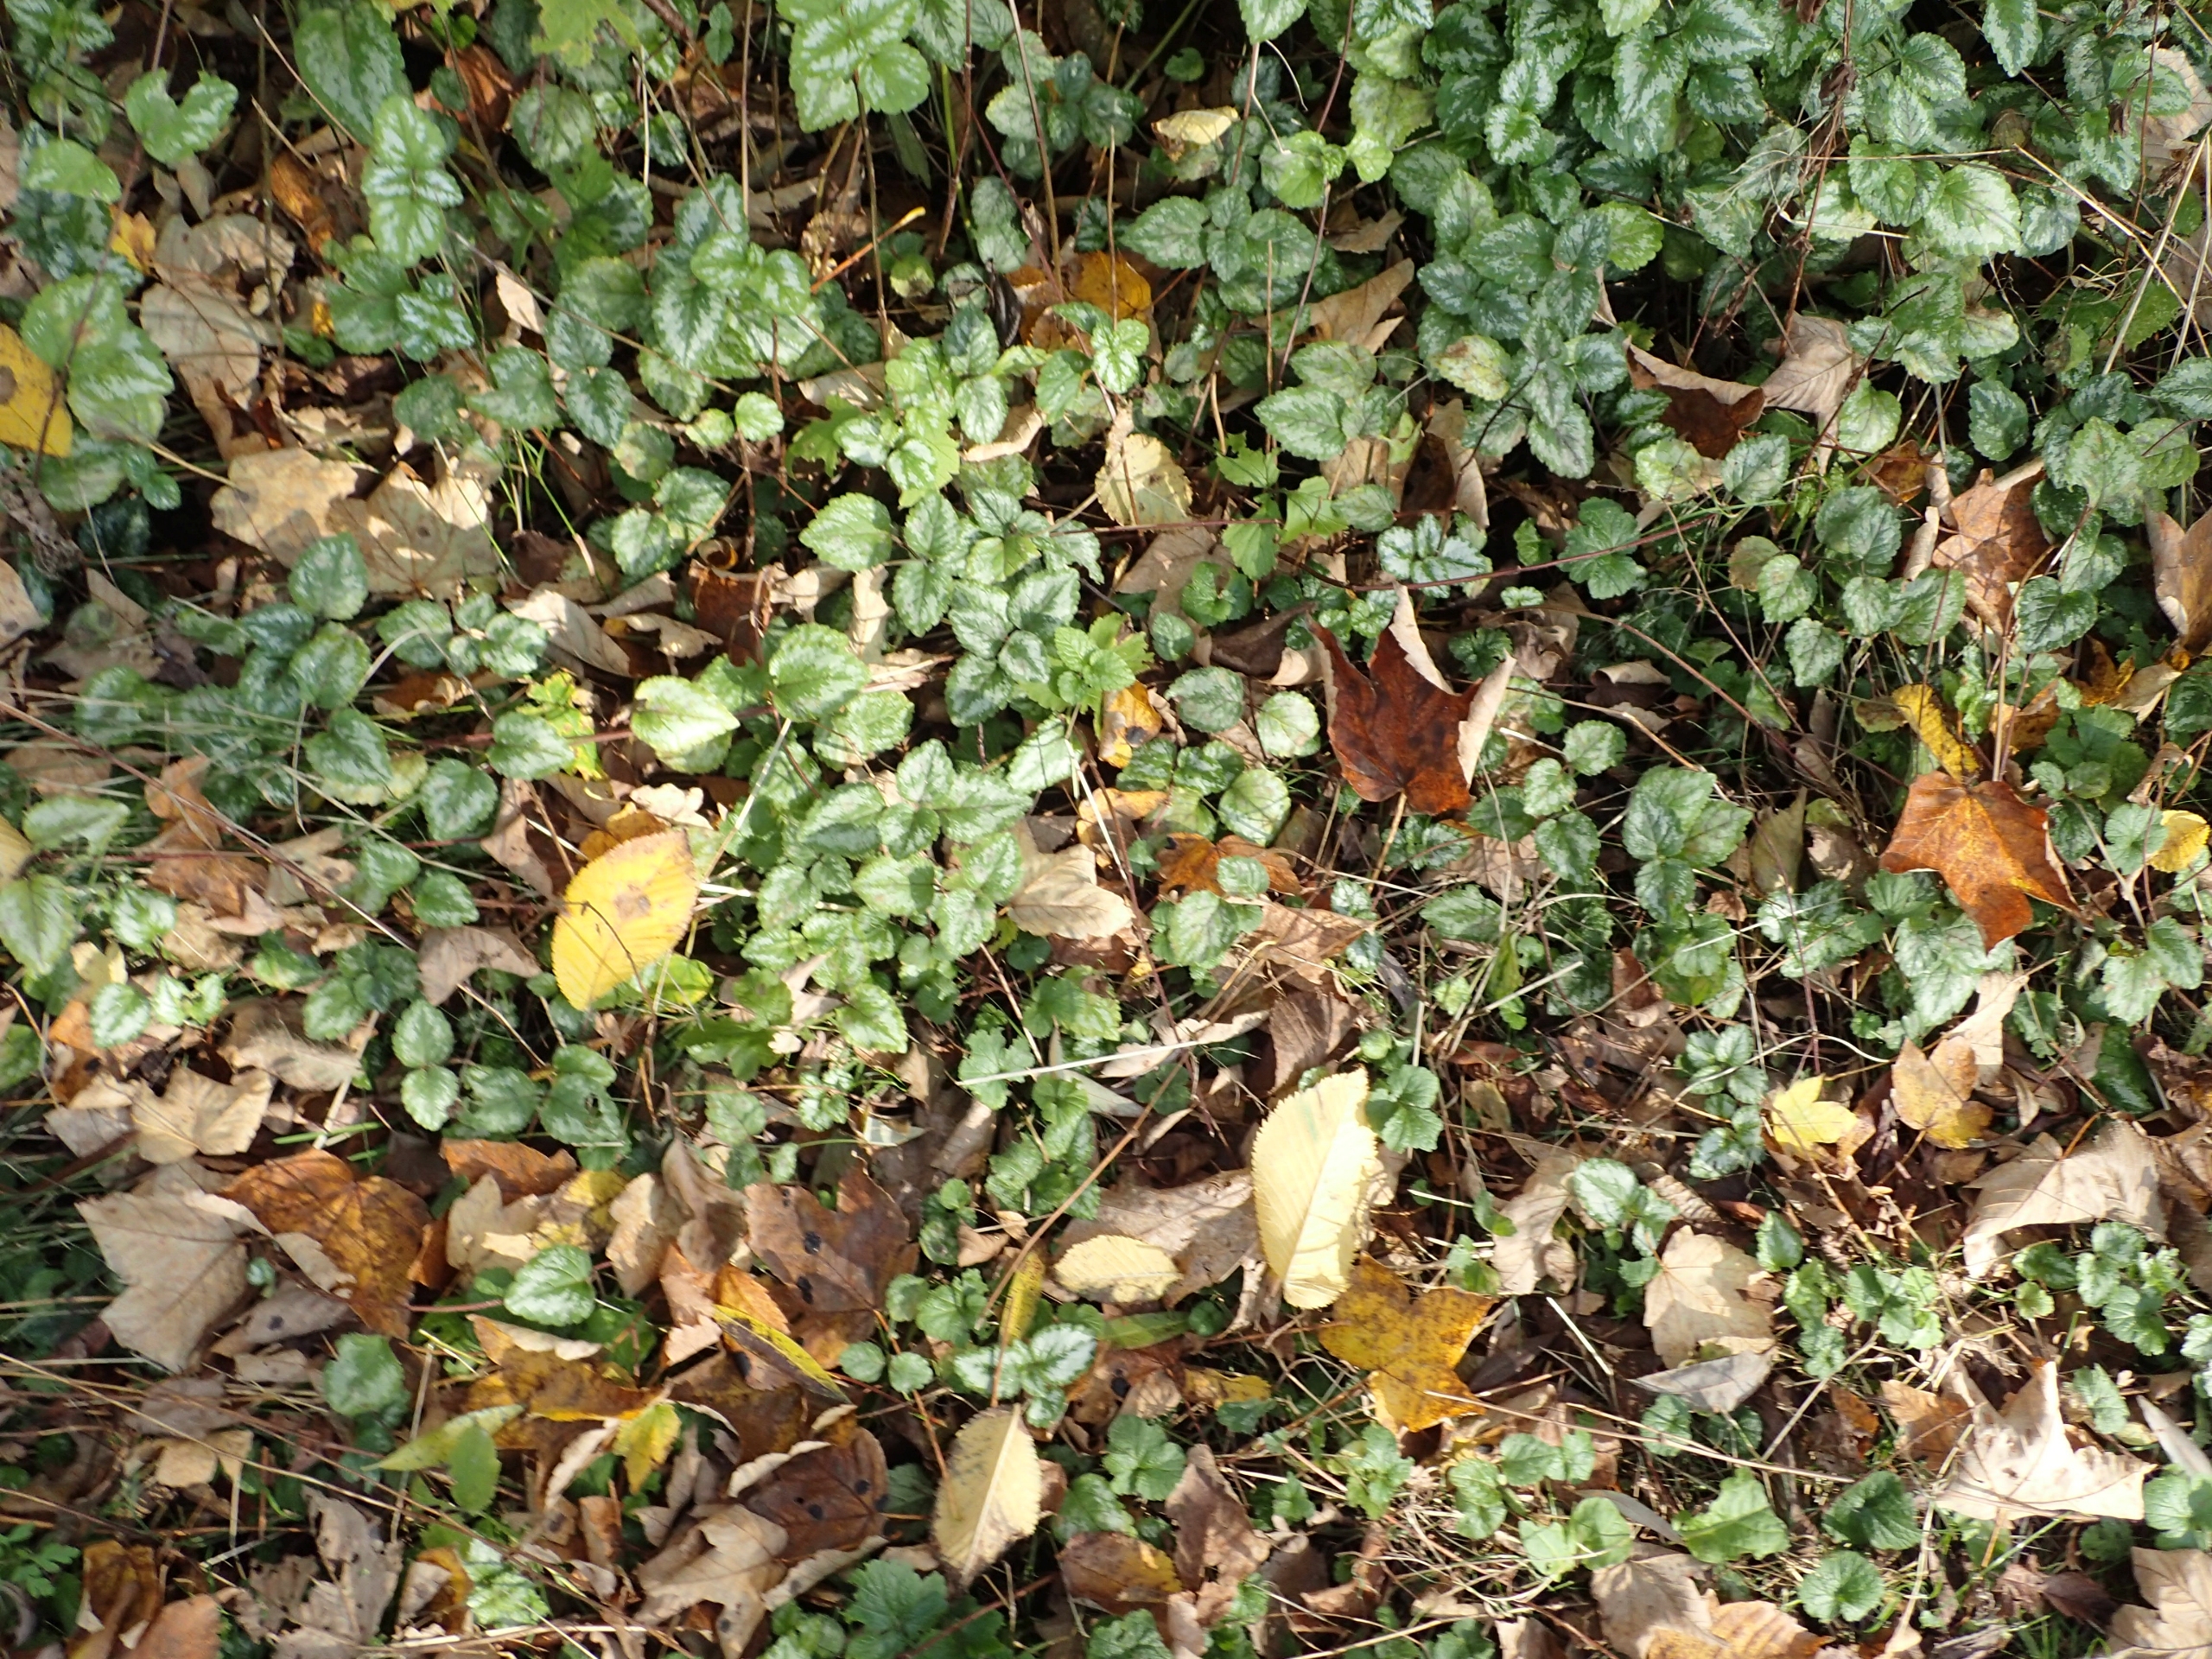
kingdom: Plantae
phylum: Tracheophyta
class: Magnoliopsida
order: Lamiales
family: Lamiaceae
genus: Lamium
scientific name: Lamium galeobdolon
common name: Have-guldnælde
